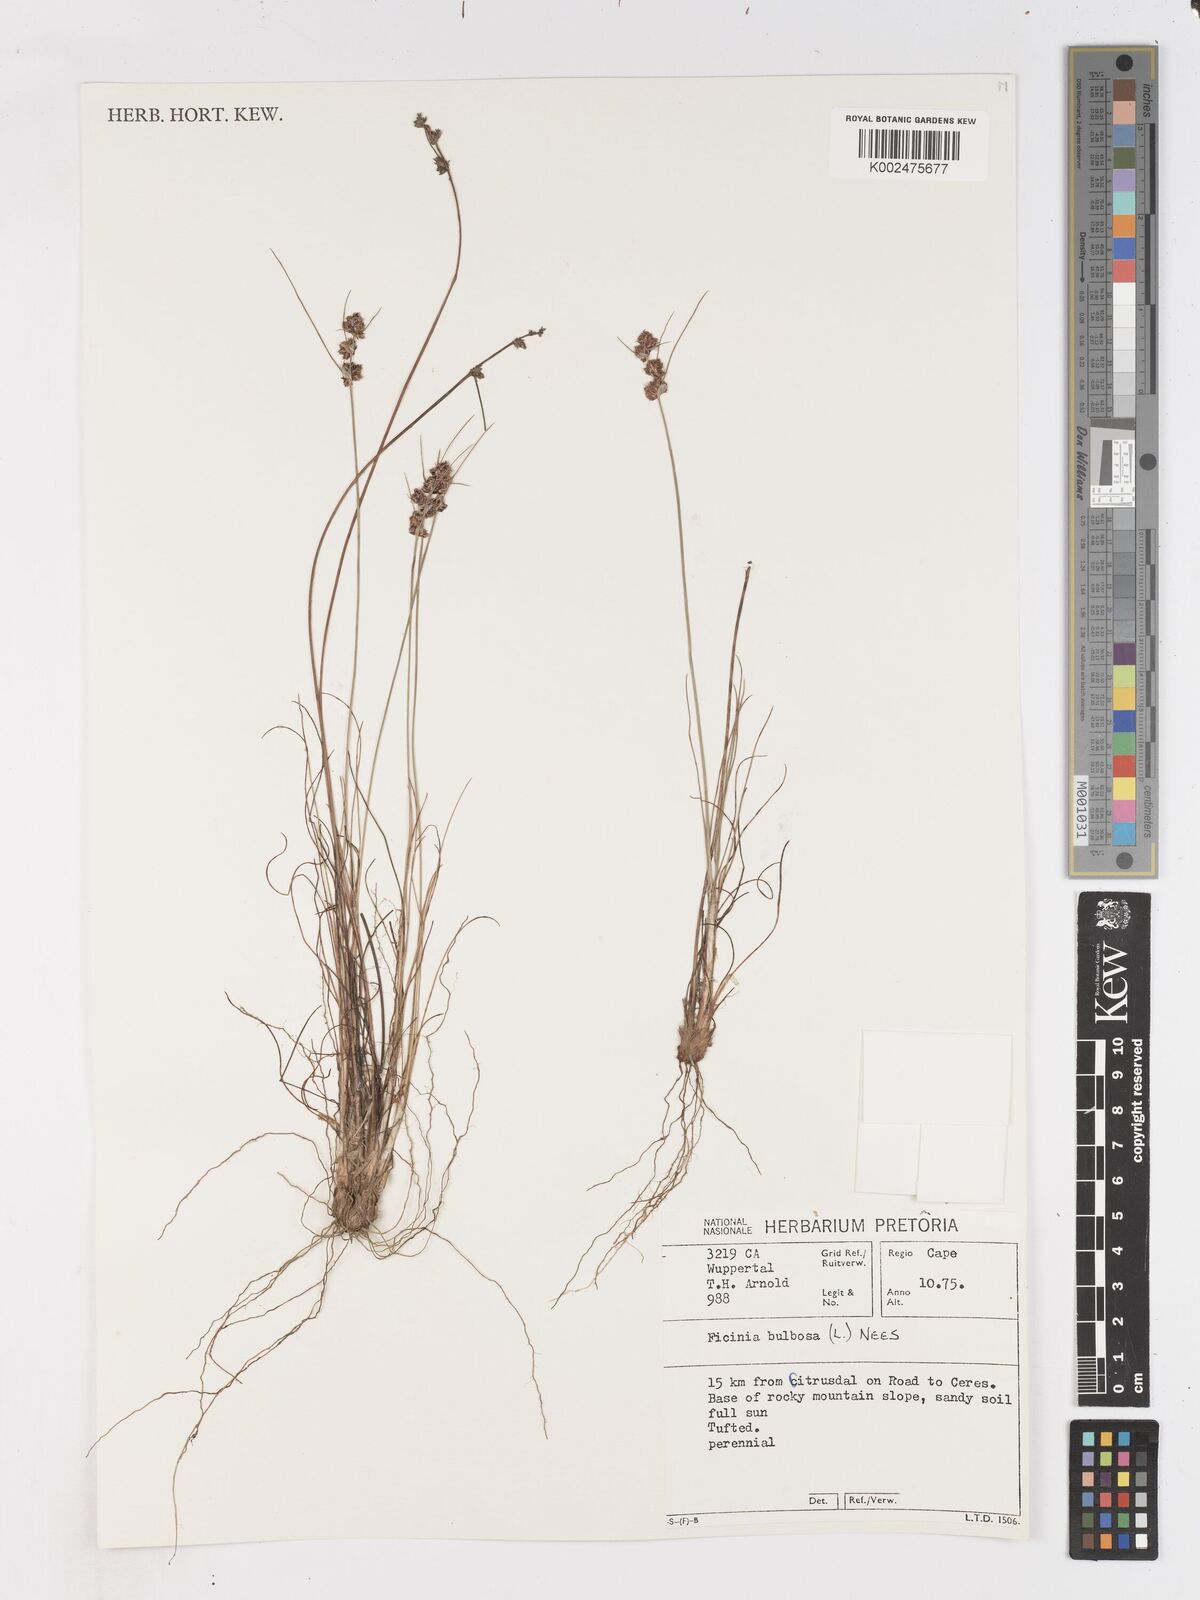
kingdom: Plantae
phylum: Tracheophyta
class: Liliopsida
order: Poales
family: Cyperaceae
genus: Ficinia
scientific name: Ficinia bulbosa
